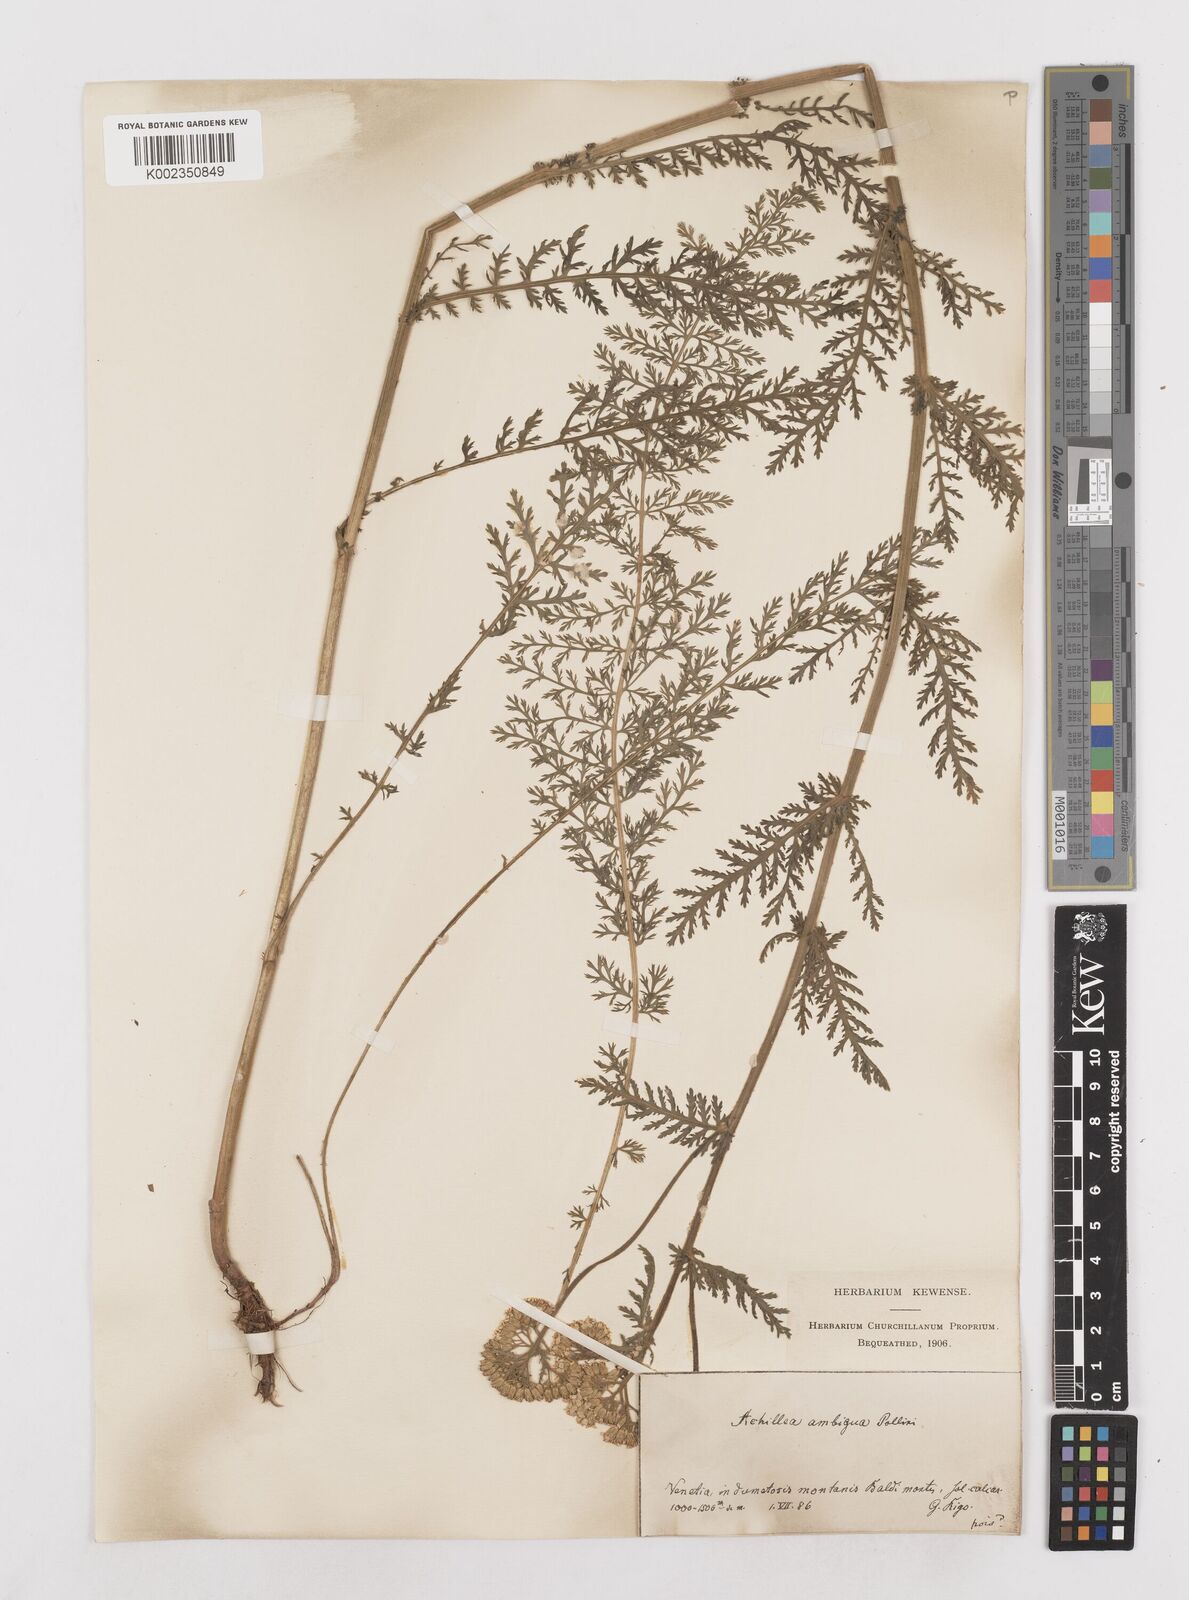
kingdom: Plantae
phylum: Tracheophyta
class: Magnoliopsida
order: Asterales
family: Asteraceae
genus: Achillea
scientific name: Achillea distans
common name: Tall yarrow
